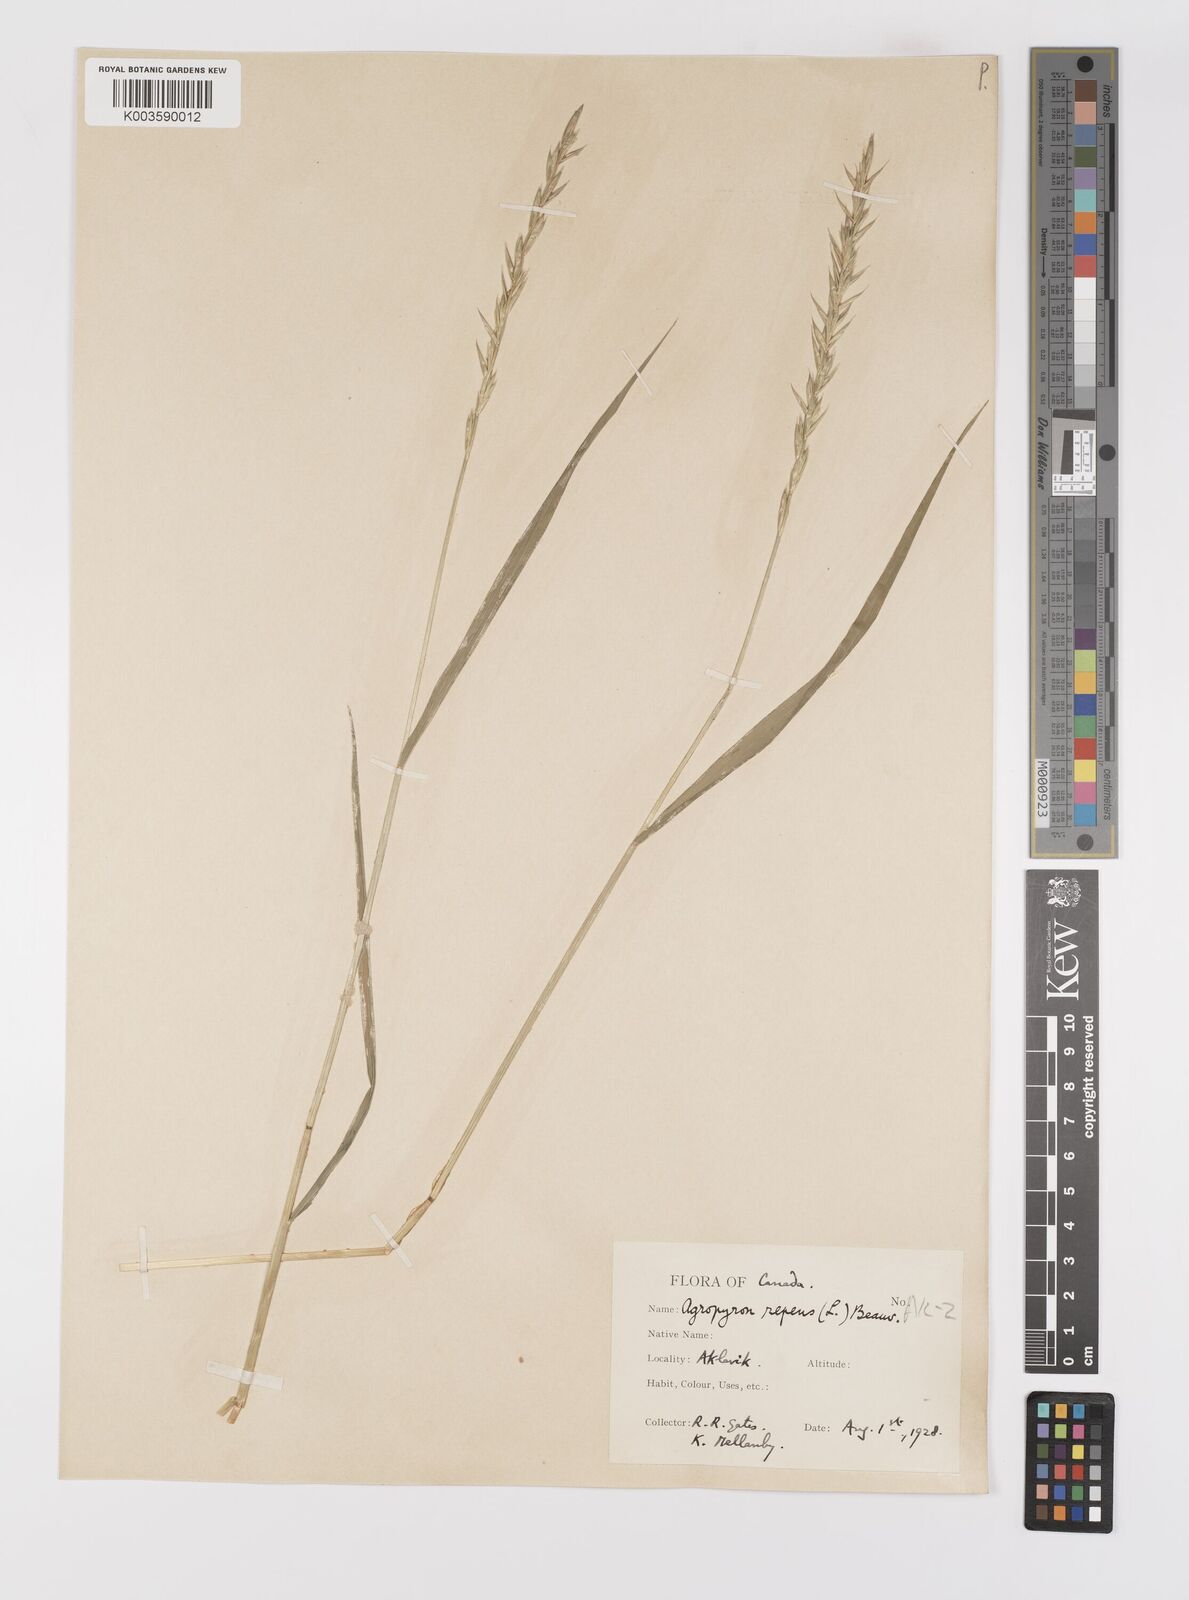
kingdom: Plantae
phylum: Tracheophyta
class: Liliopsida
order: Poales
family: Poaceae
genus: Elymus
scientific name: Elymus repens
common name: Quackgrass
